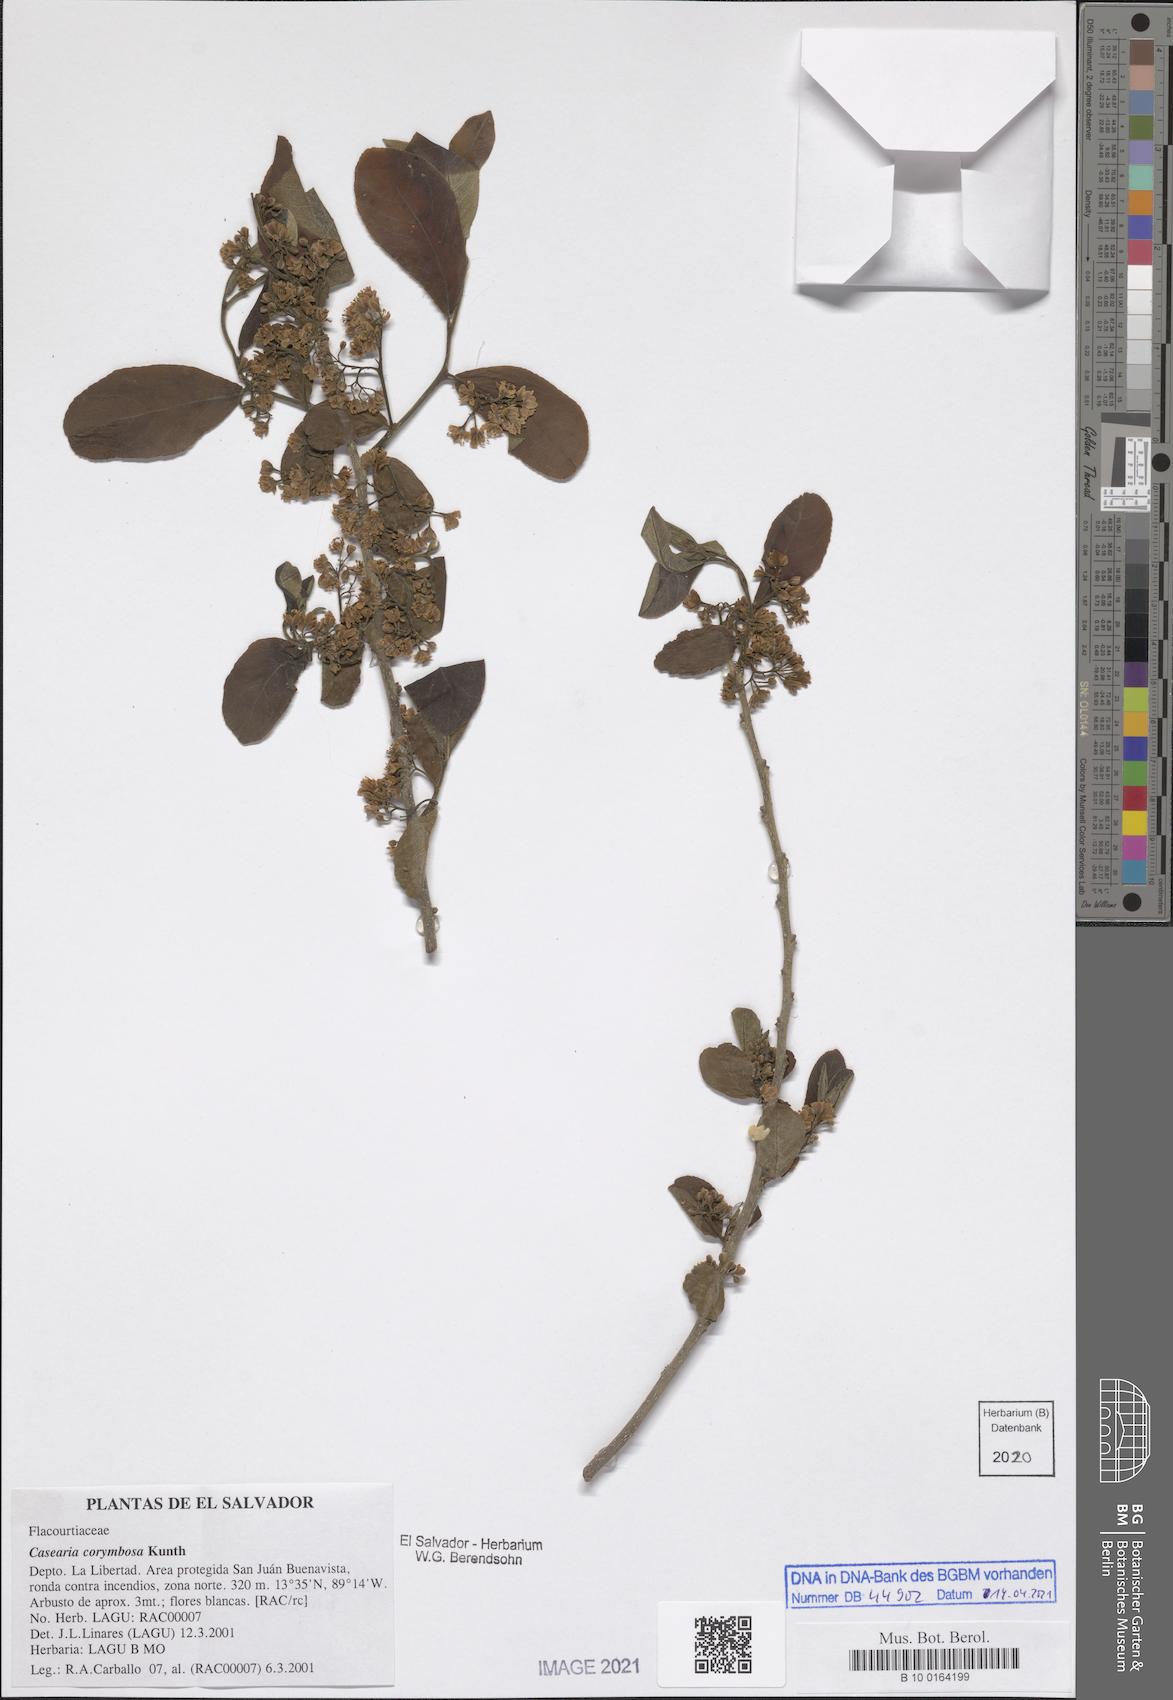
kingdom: Plantae
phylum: Tracheophyta
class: Magnoliopsida
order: Malpighiales
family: Salicaceae
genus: Casearia
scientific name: Casearia corymbosa
